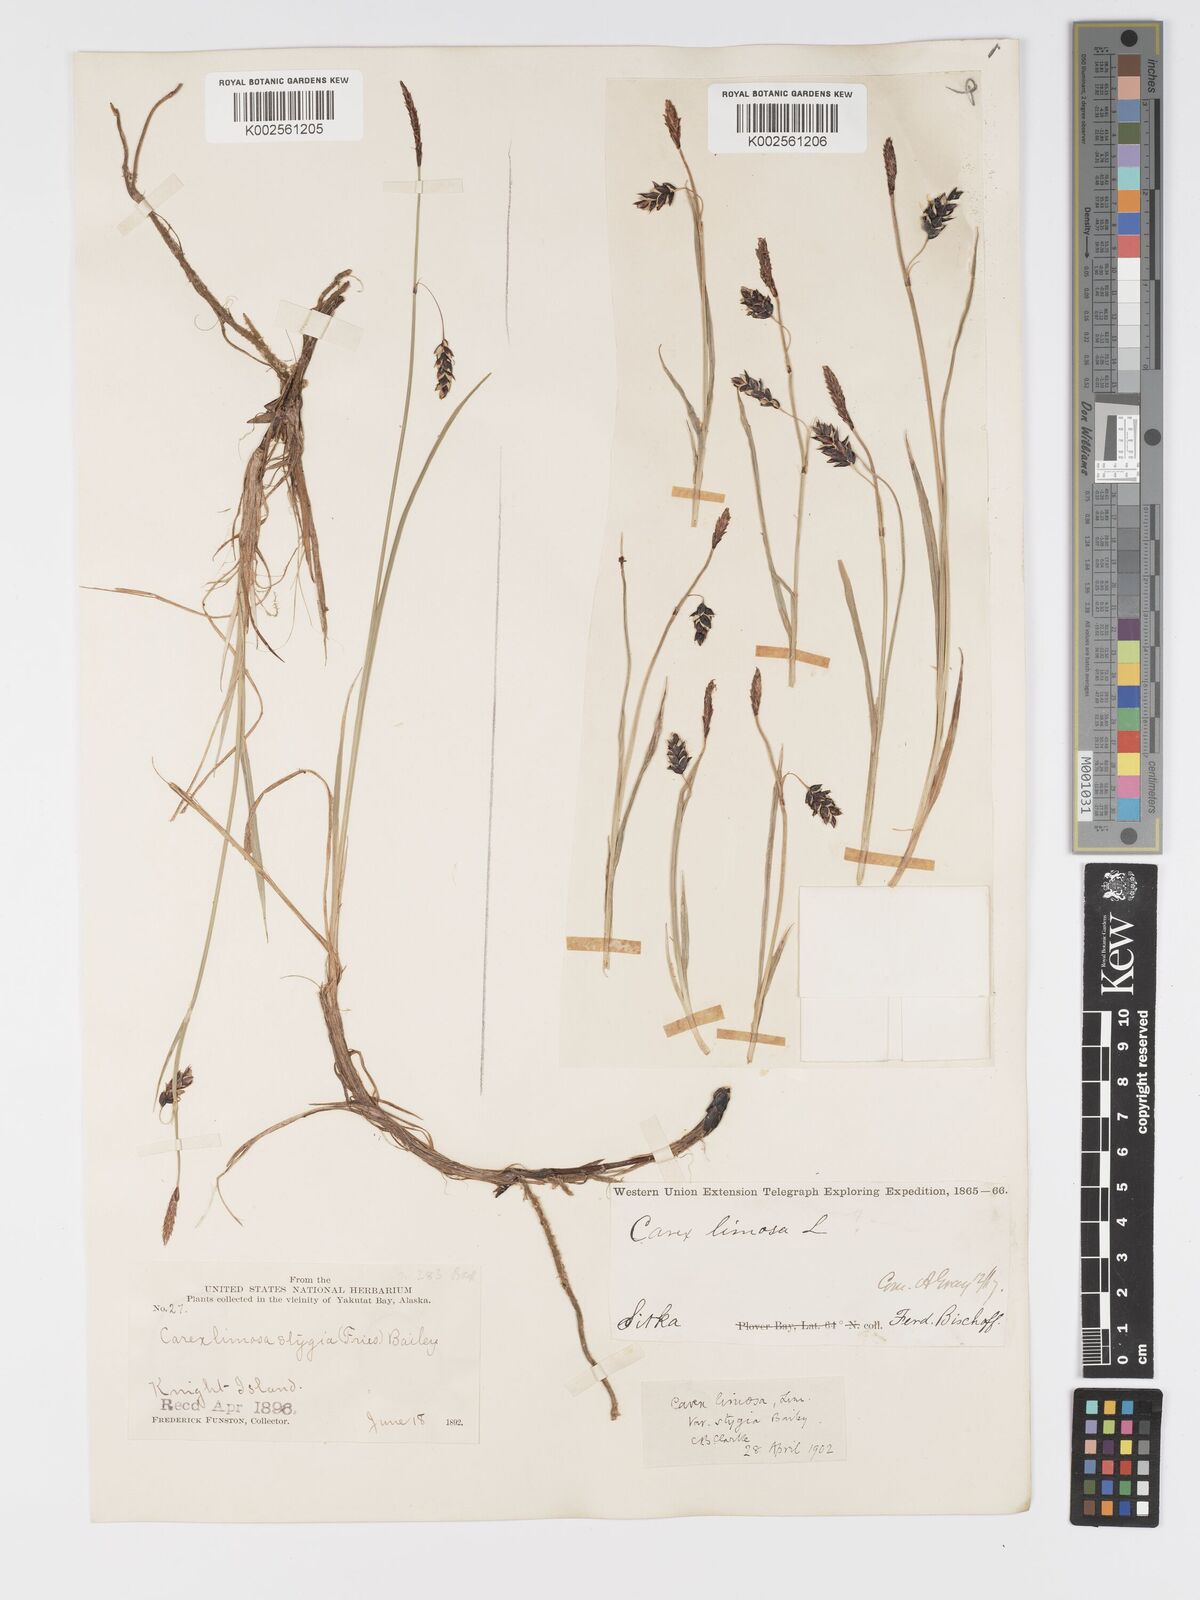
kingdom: Plantae
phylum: Tracheophyta
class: Liliopsida
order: Poales
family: Cyperaceae
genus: Carex
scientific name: Carex stygia
